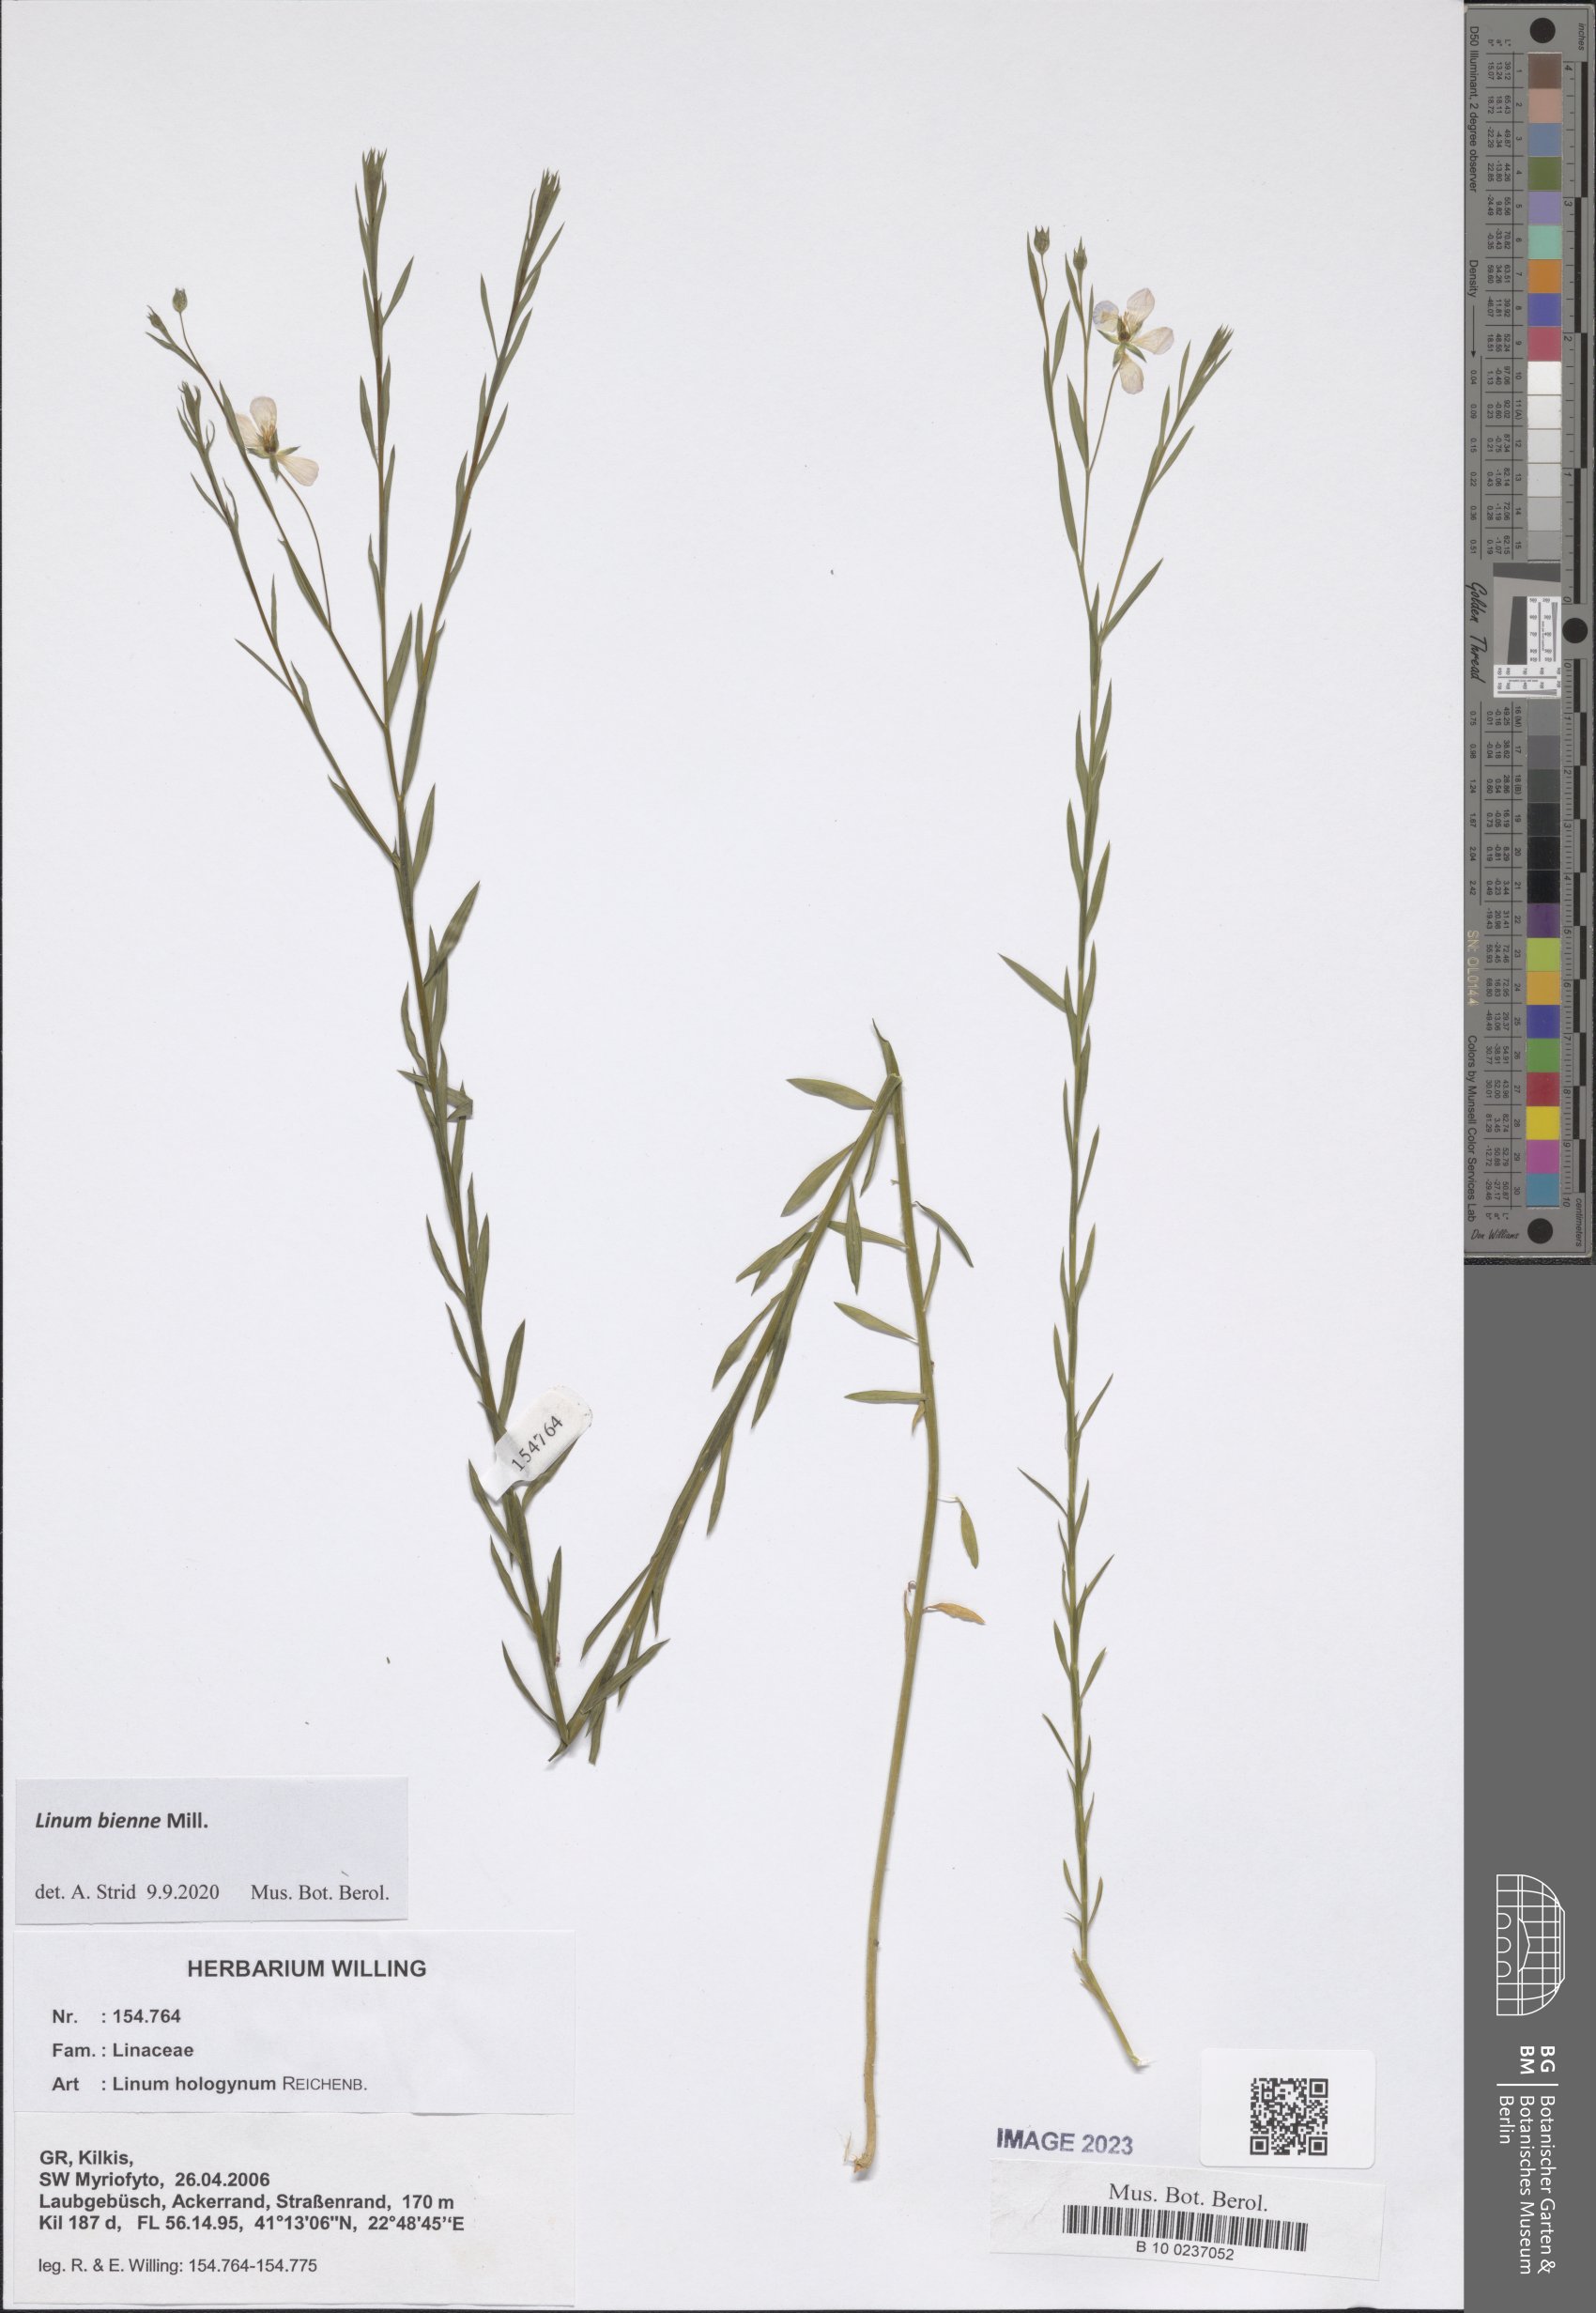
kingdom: Plantae
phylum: Tracheophyta
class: Magnoliopsida
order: Malpighiales
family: Linaceae
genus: Linum
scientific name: Linum bienne
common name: Pale flax
